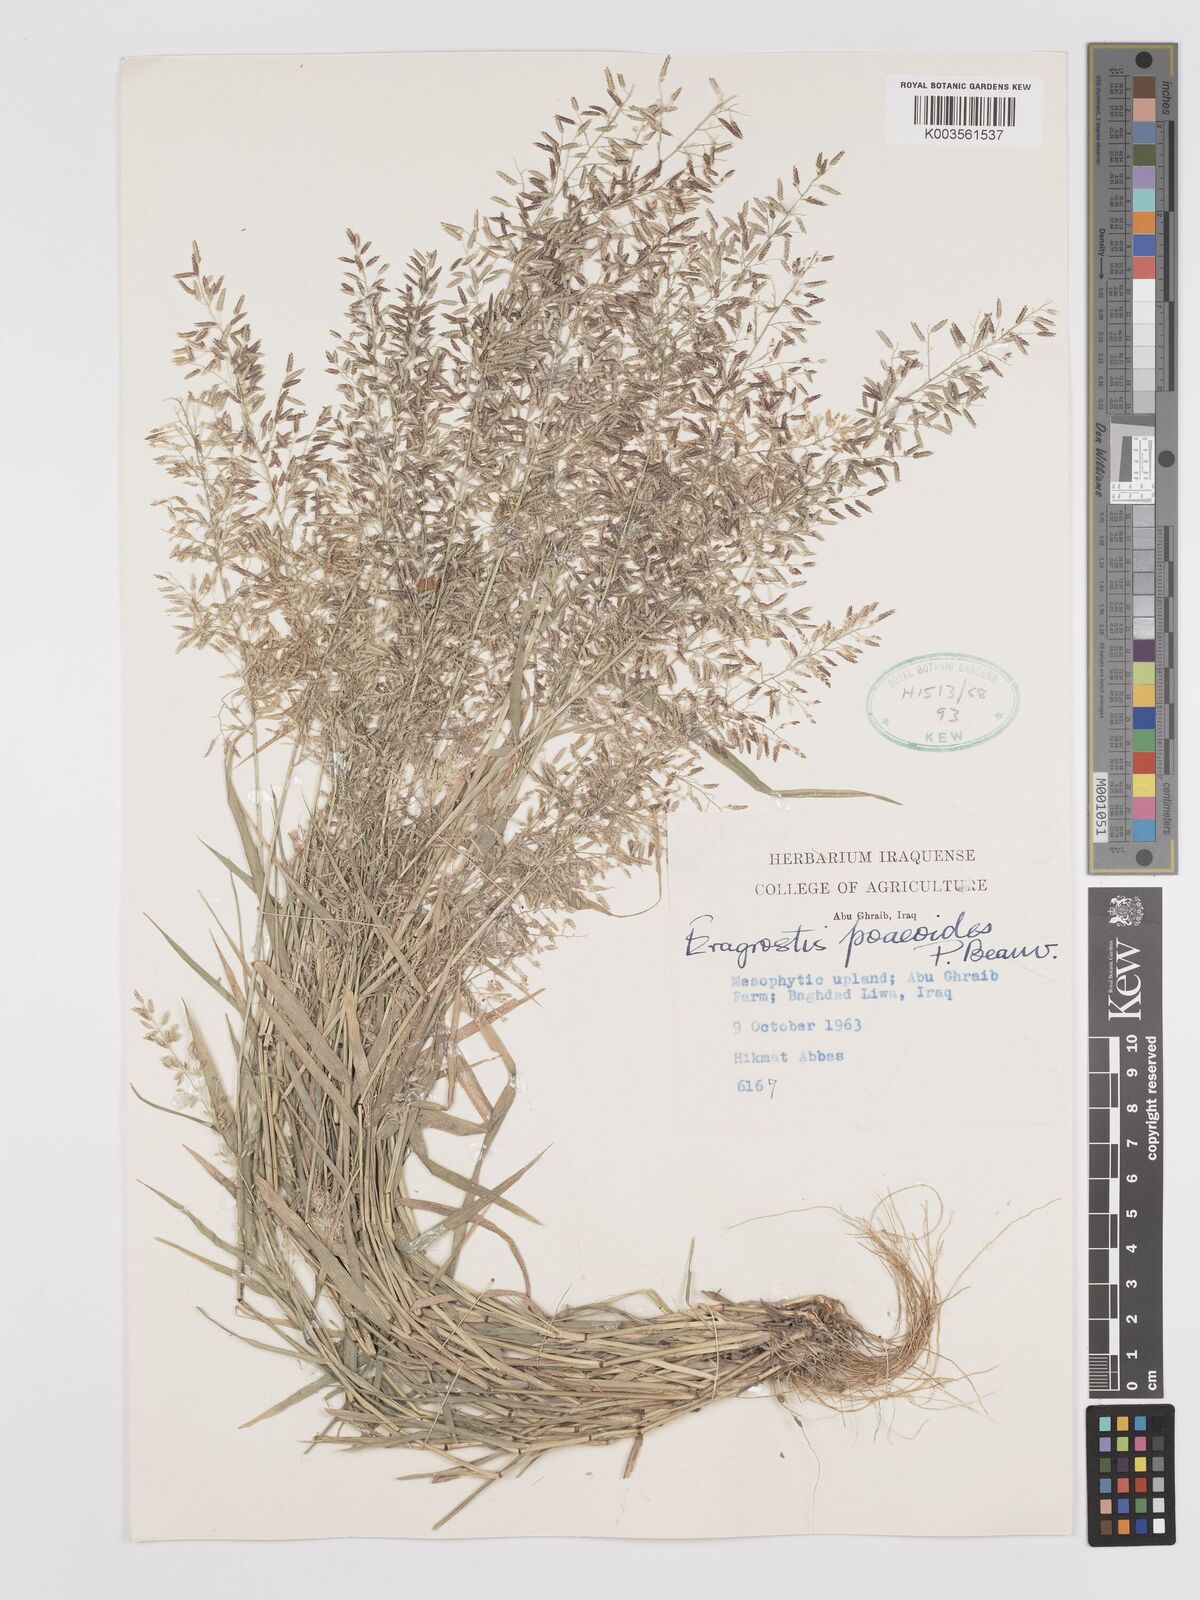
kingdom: Plantae
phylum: Tracheophyta
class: Liliopsida
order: Poales
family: Poaceae
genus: Eragrostis
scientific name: Eragrostis minor
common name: Small love-grass
